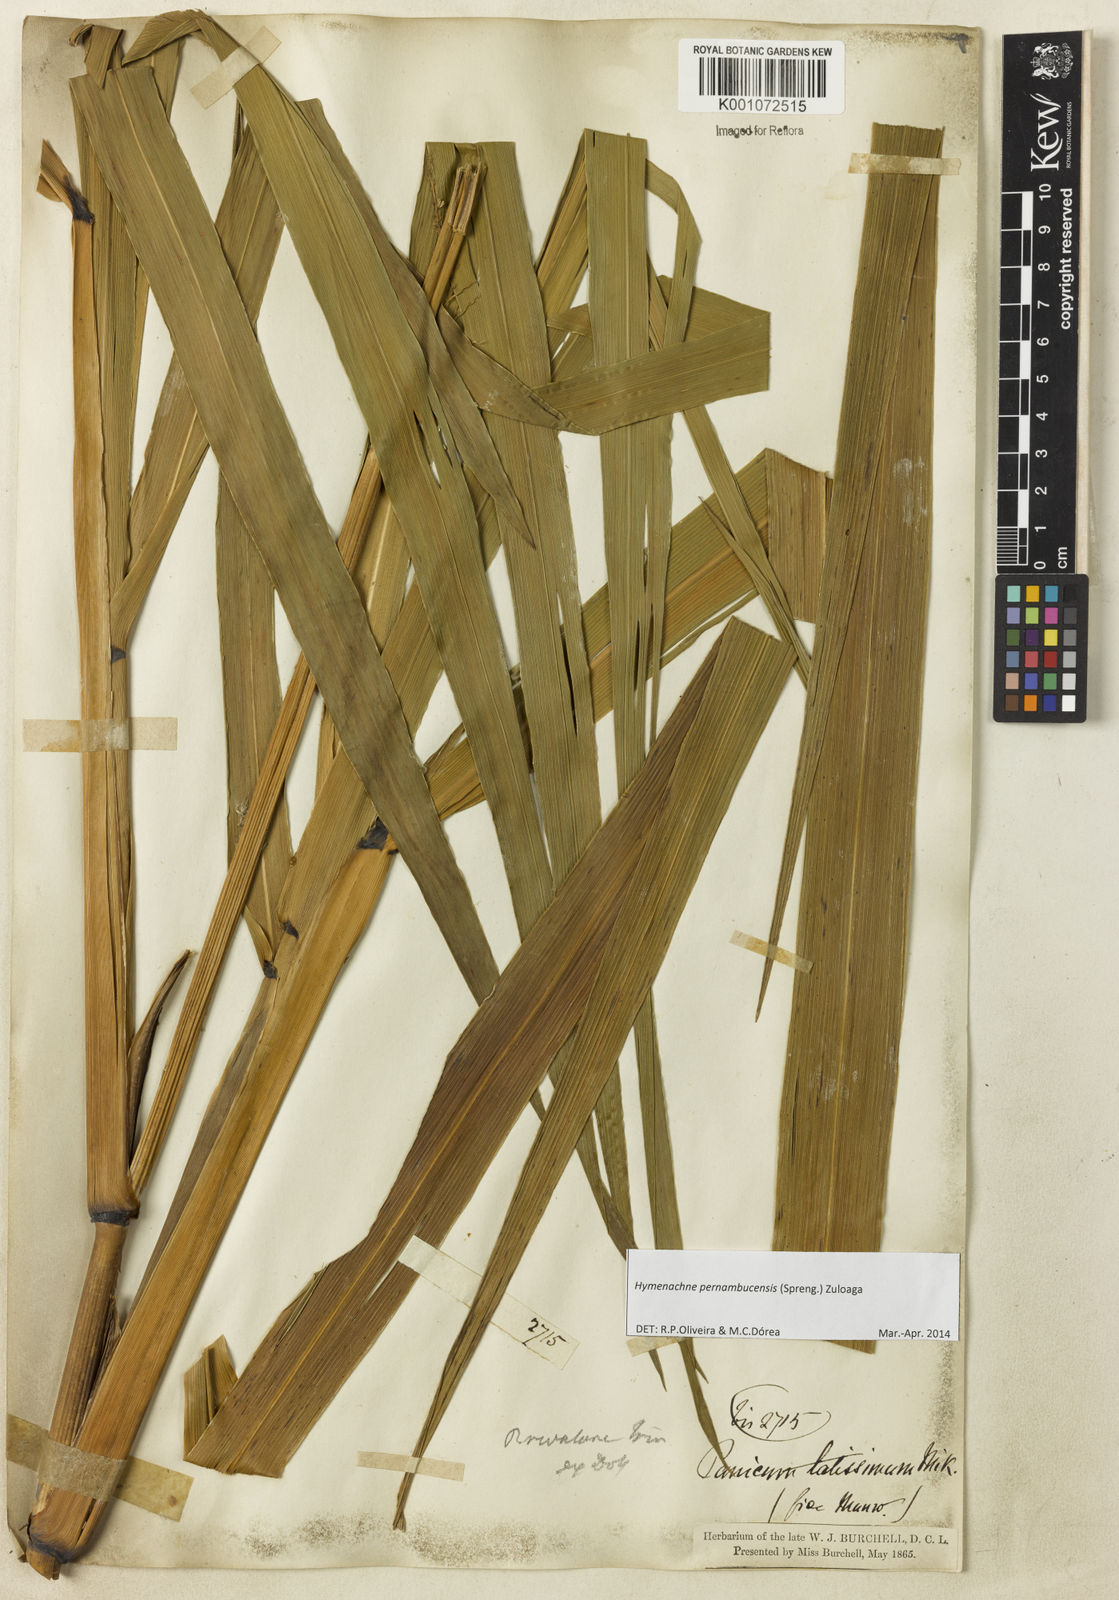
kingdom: Plantae
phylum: Tracheophyta
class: Liliopsida
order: Poales
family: Poaceae
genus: Hymenachne
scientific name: Hymenachne pernambucensis
